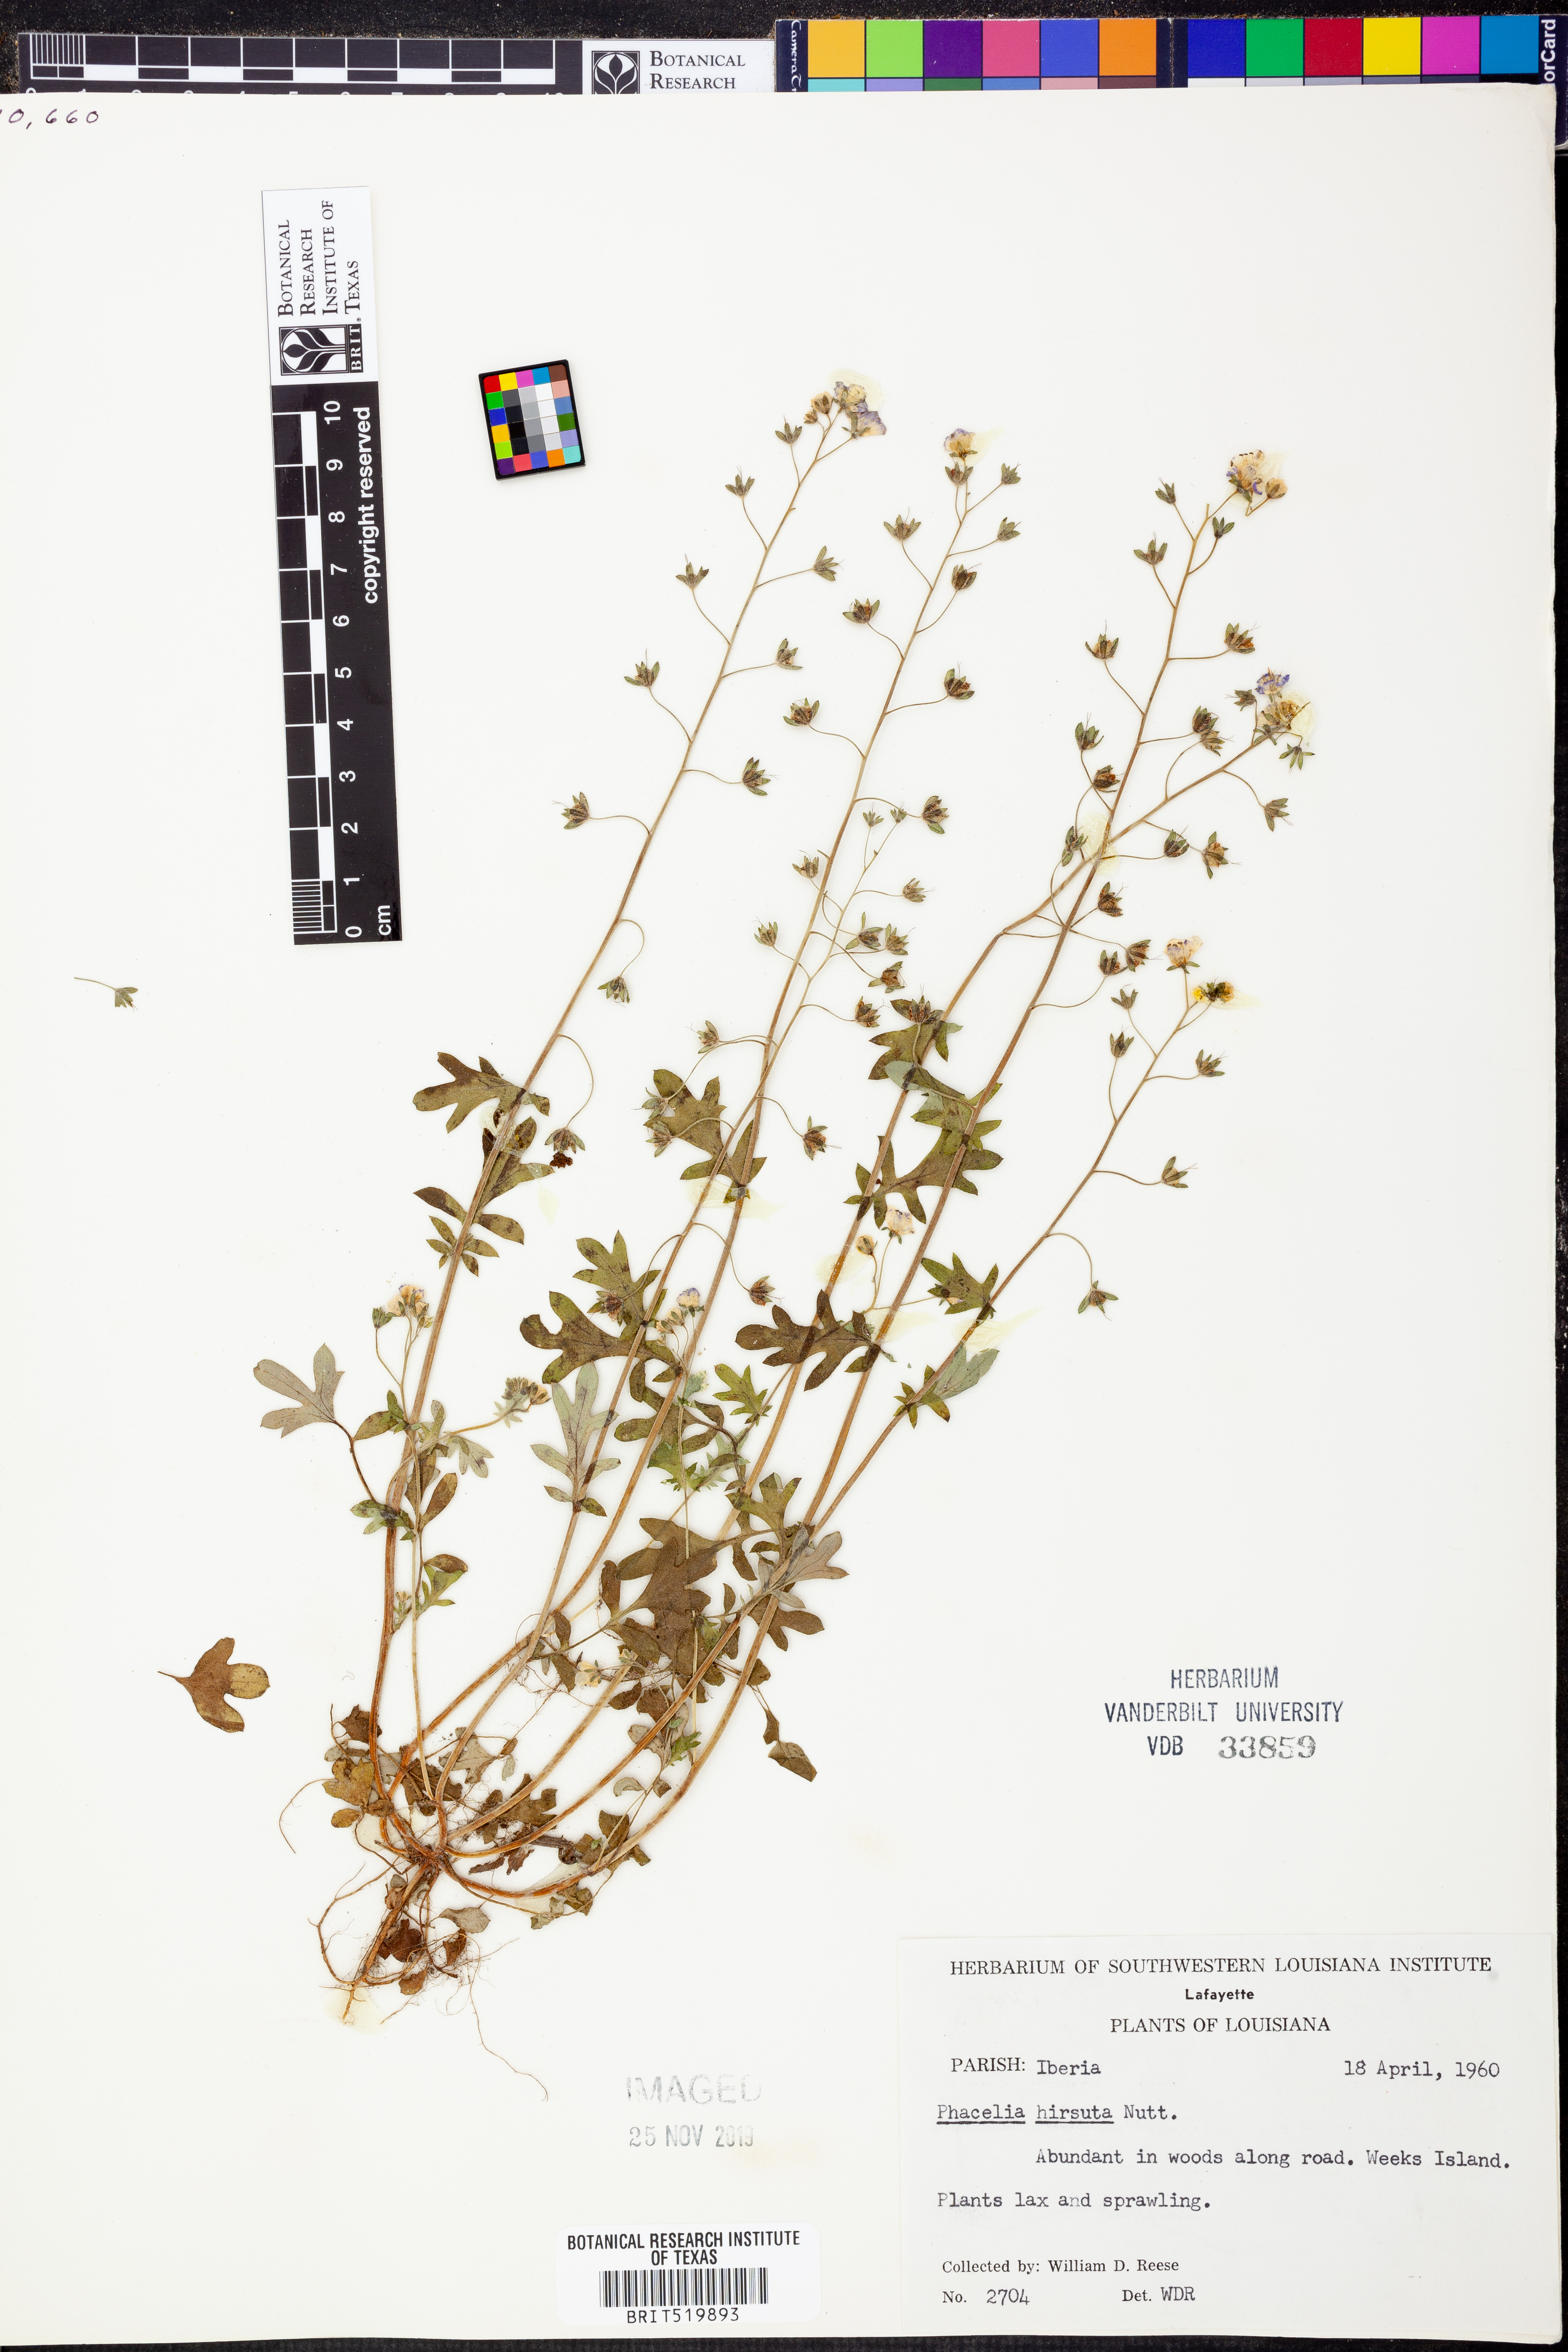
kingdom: Plantae
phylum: Tracheophyta
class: Magnoliopsida
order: Boraginales
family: Hydrophyllaceae
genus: Phacelia
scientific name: Phacelia hirsuta
